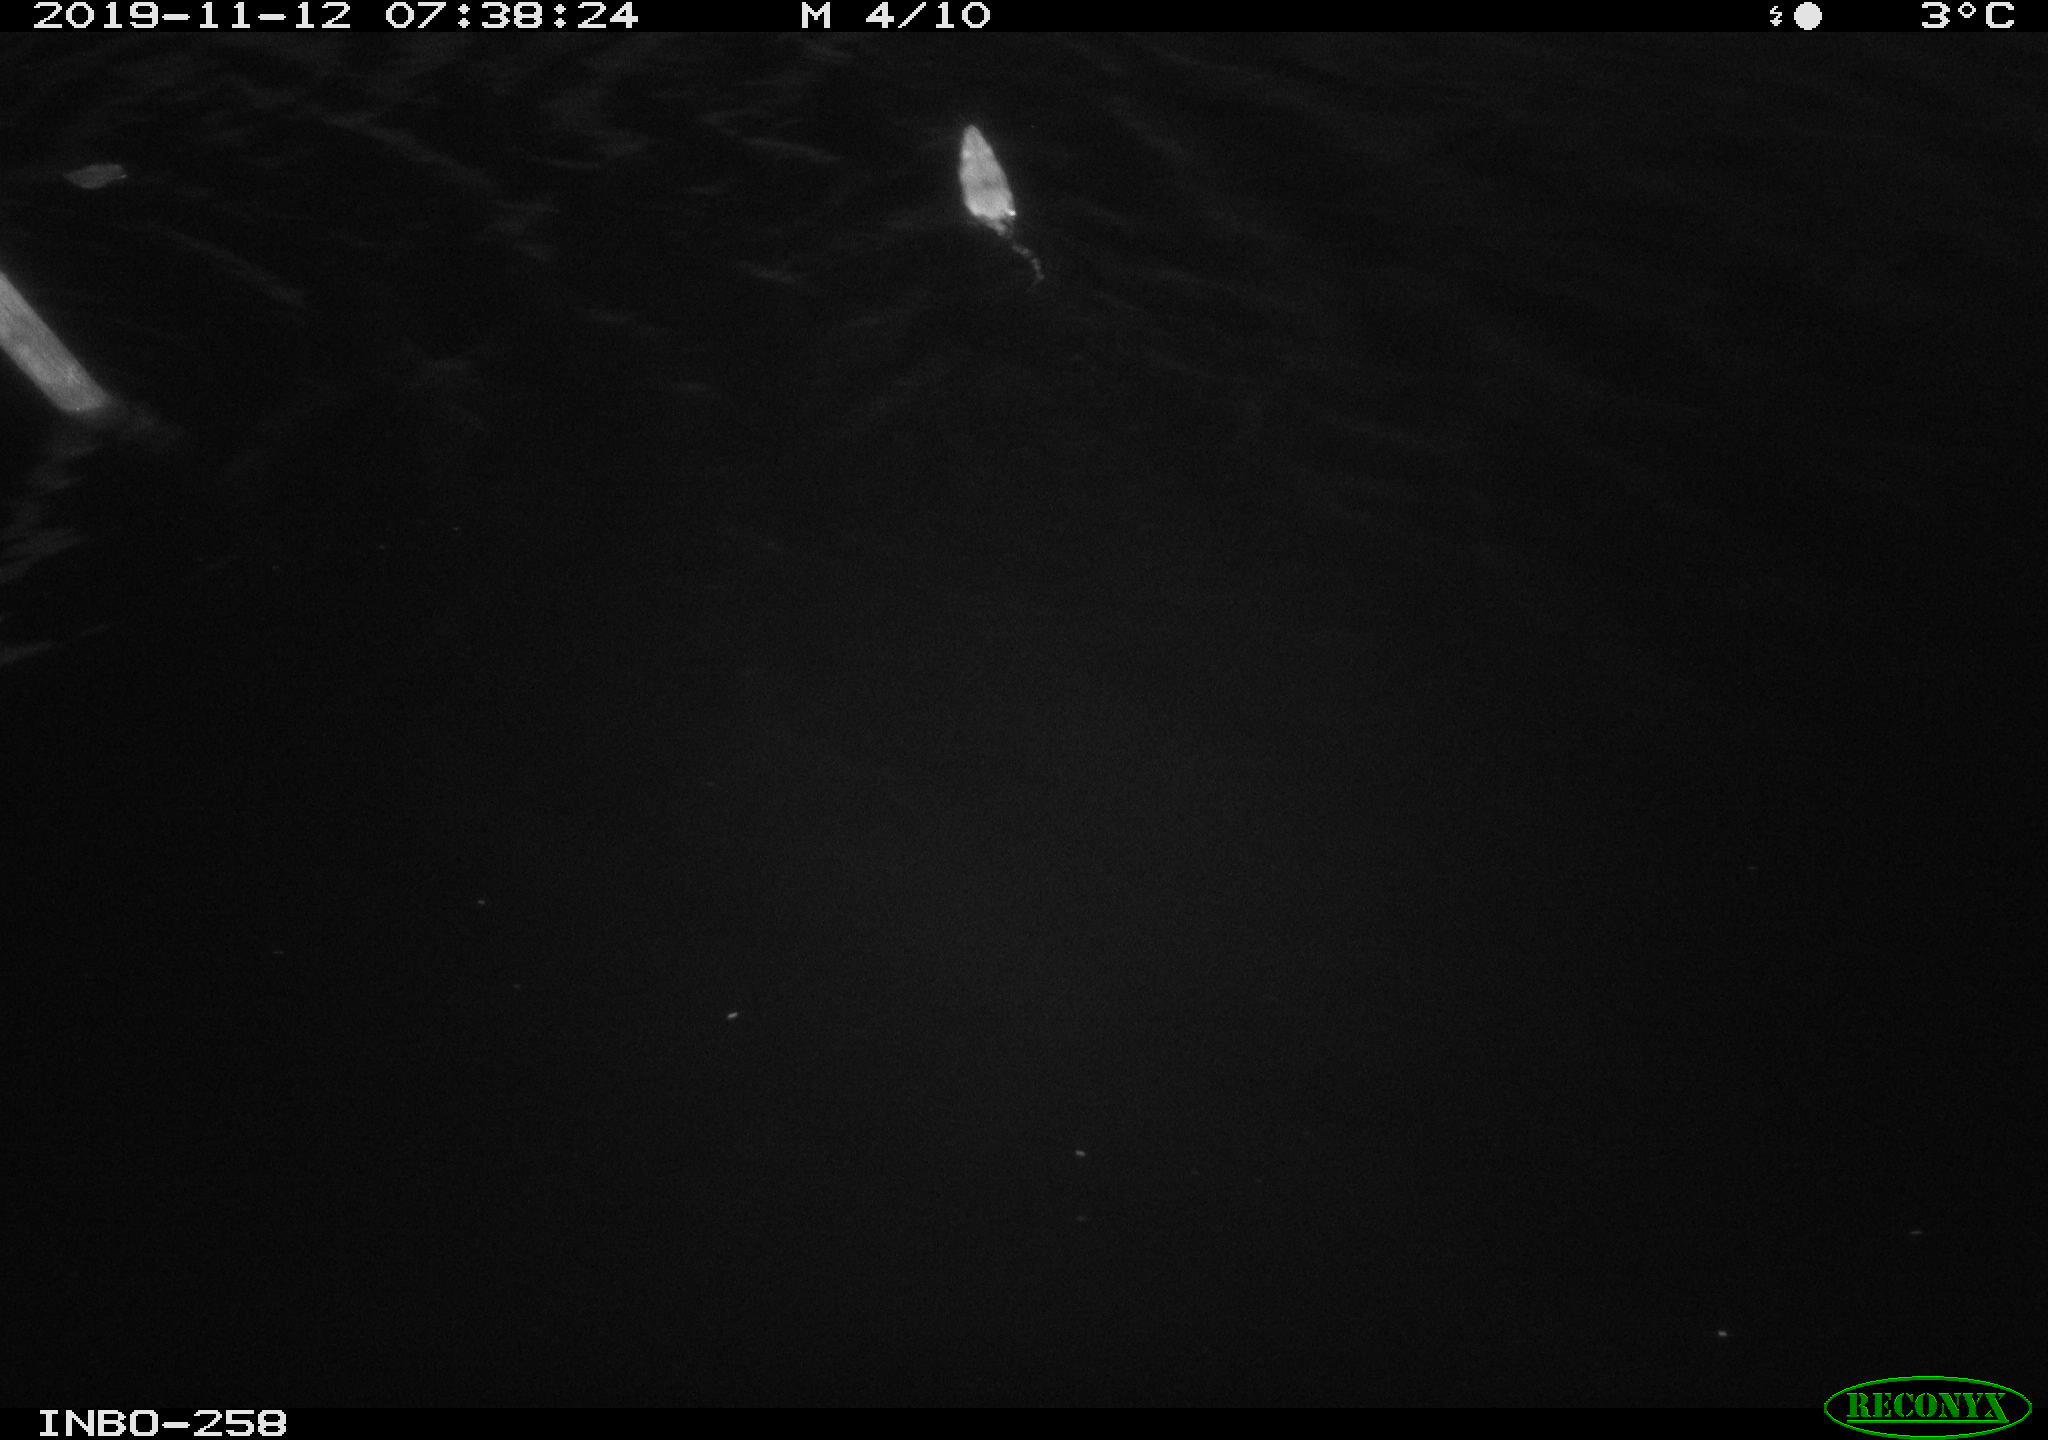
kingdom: Animalia
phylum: Chordata
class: Mammalia
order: Rodentia
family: Muridae
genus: Rattus
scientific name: Rattus norvegicus
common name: Brown rat
